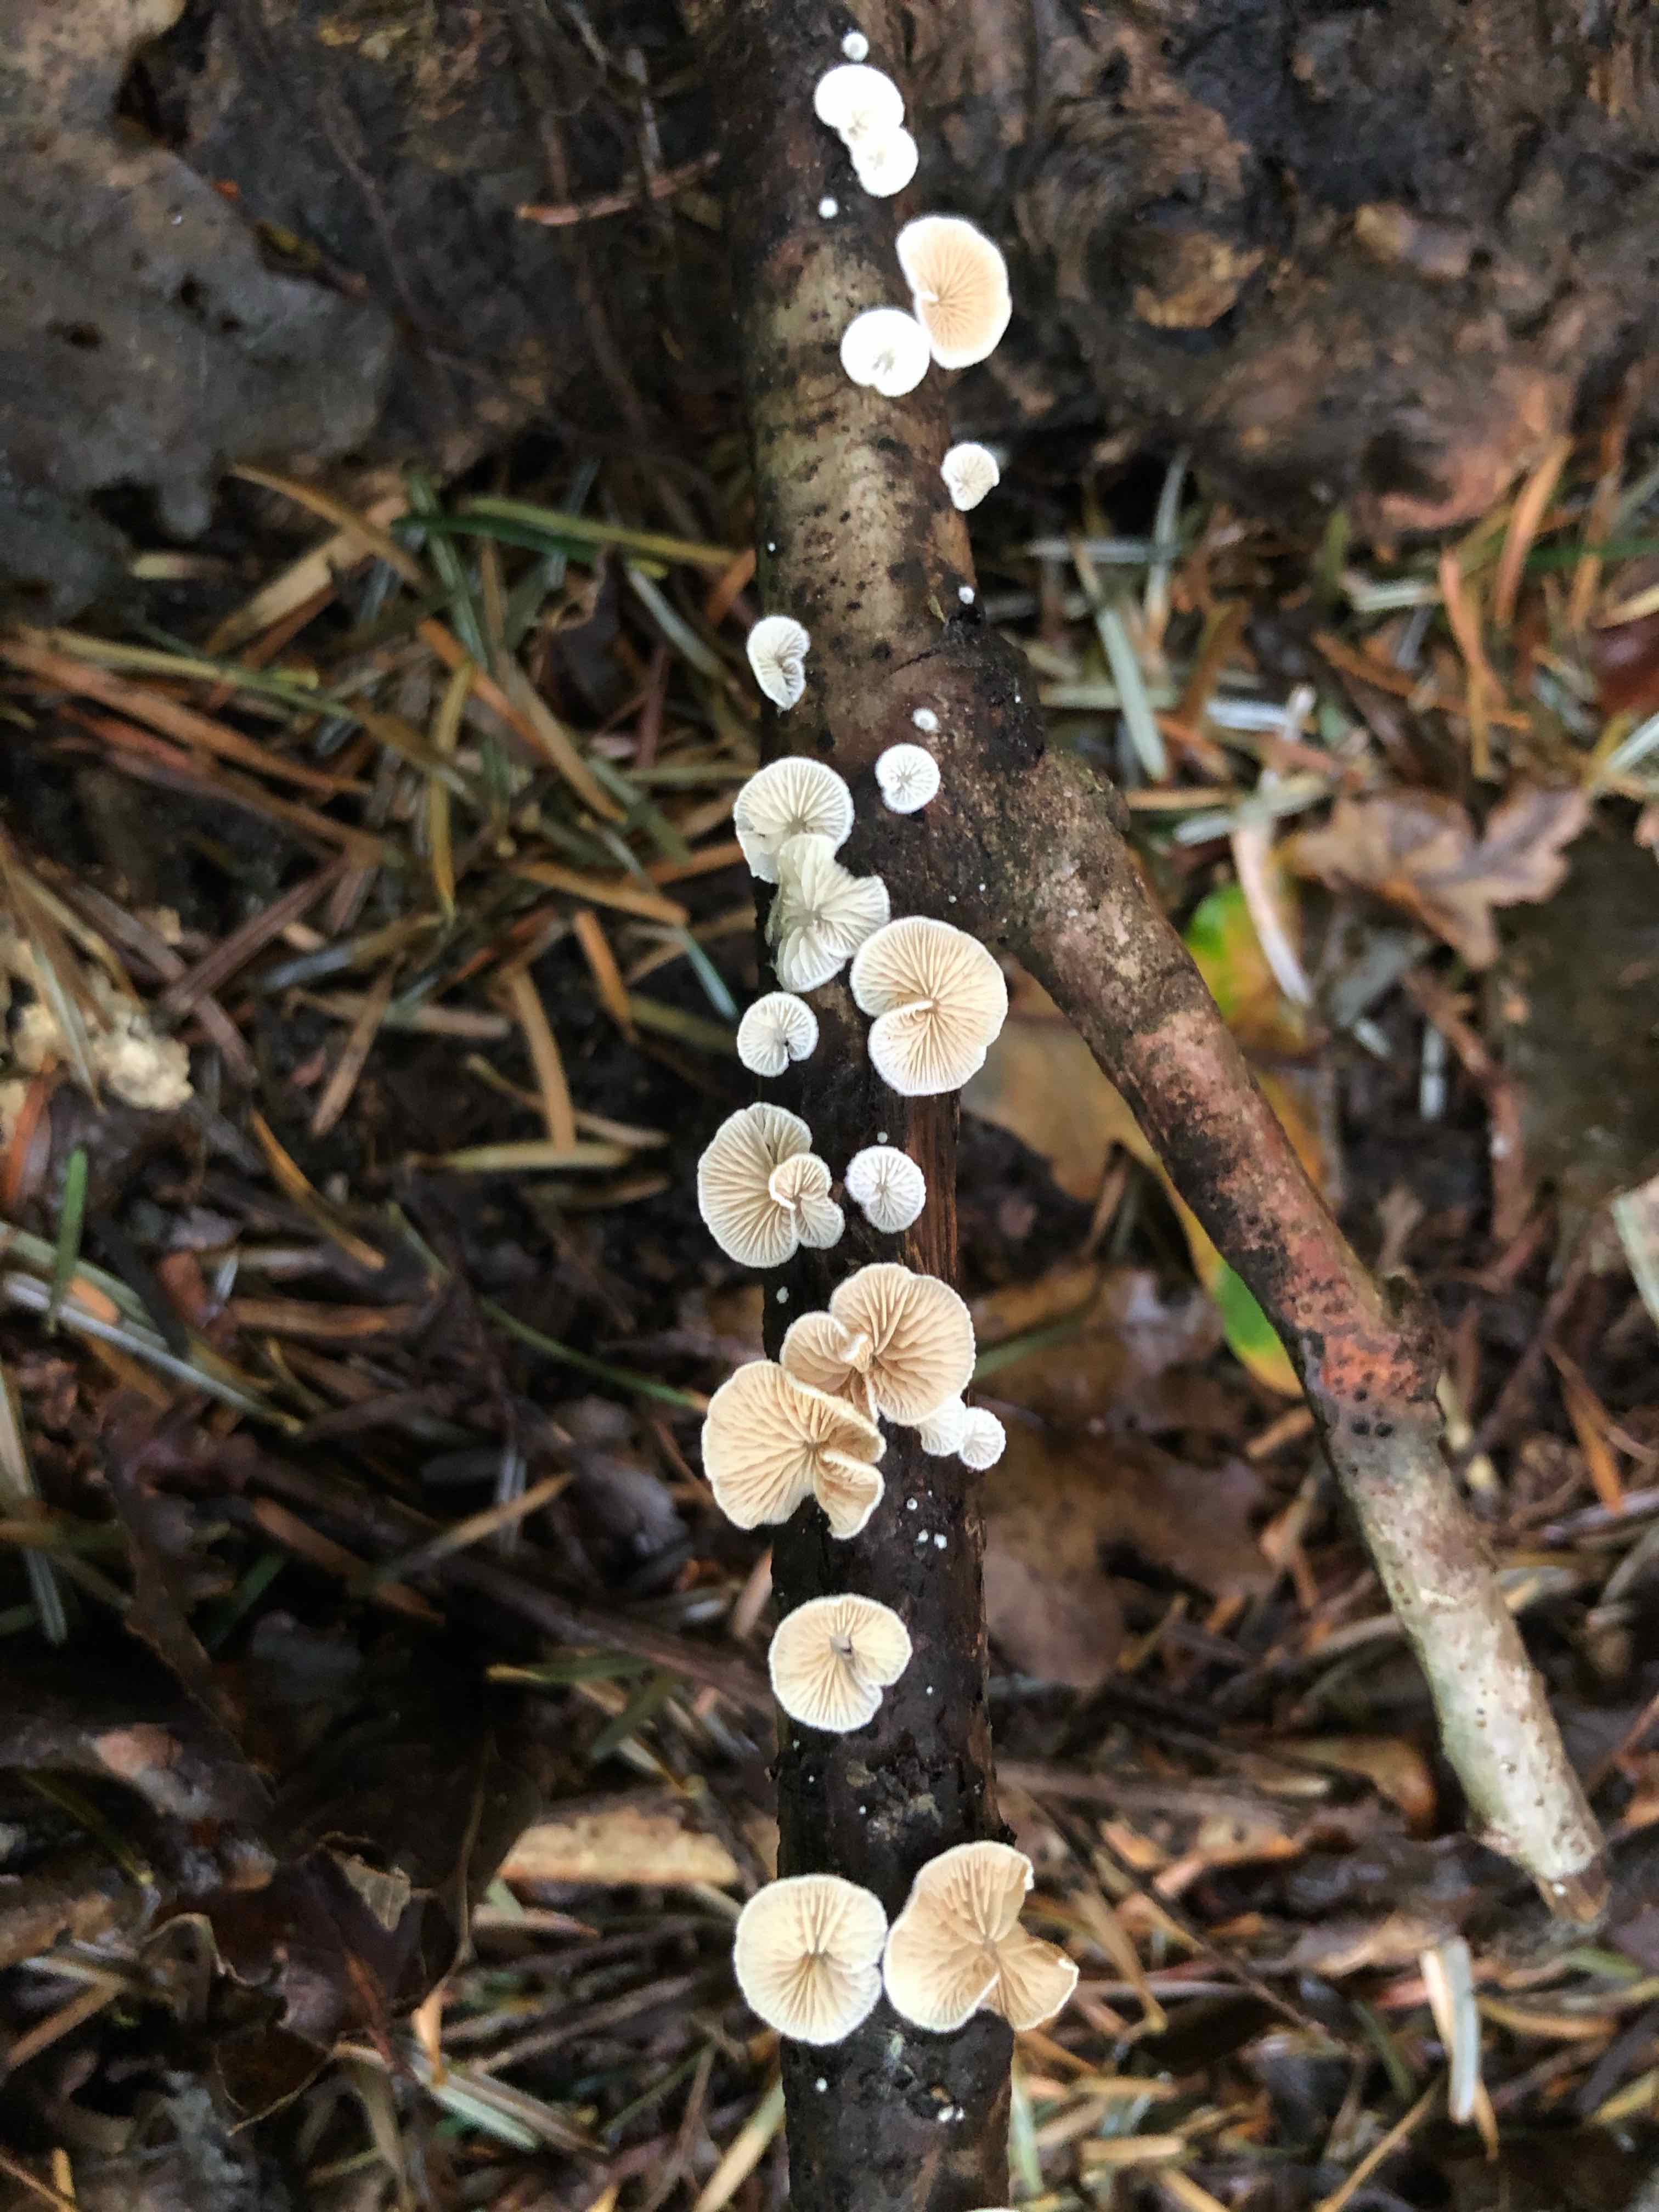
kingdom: Fungi
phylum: Basidiomycota
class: Agaricomycetes
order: Agaricales
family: Crepidotaceae
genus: Crepidotus
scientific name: Crepidotus cesatii
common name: almindelig muslingesvamp
